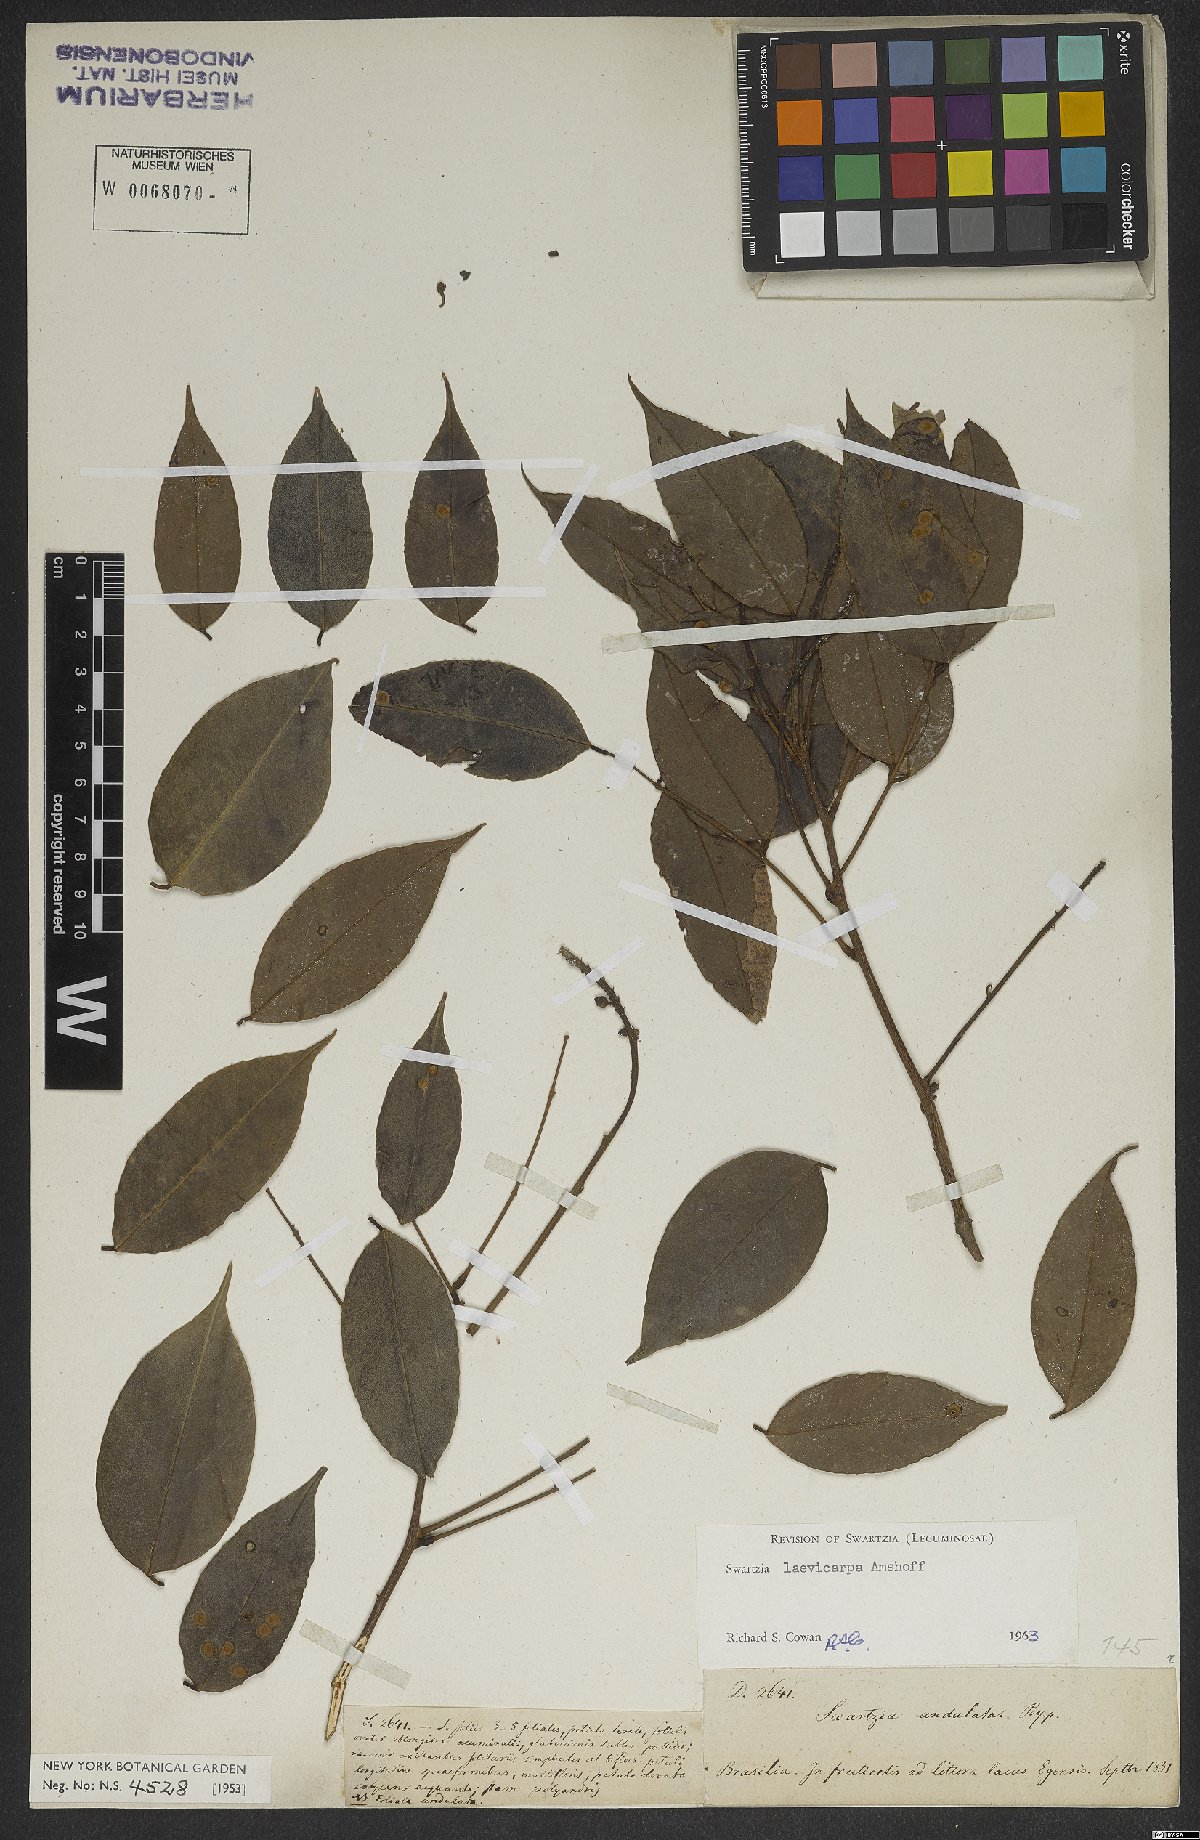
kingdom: Plantae
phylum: Tracheophyta
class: Magnoliopsida
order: Fabales
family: Fabaceae
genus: Swartzia
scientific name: Swartzia laevicarpa
